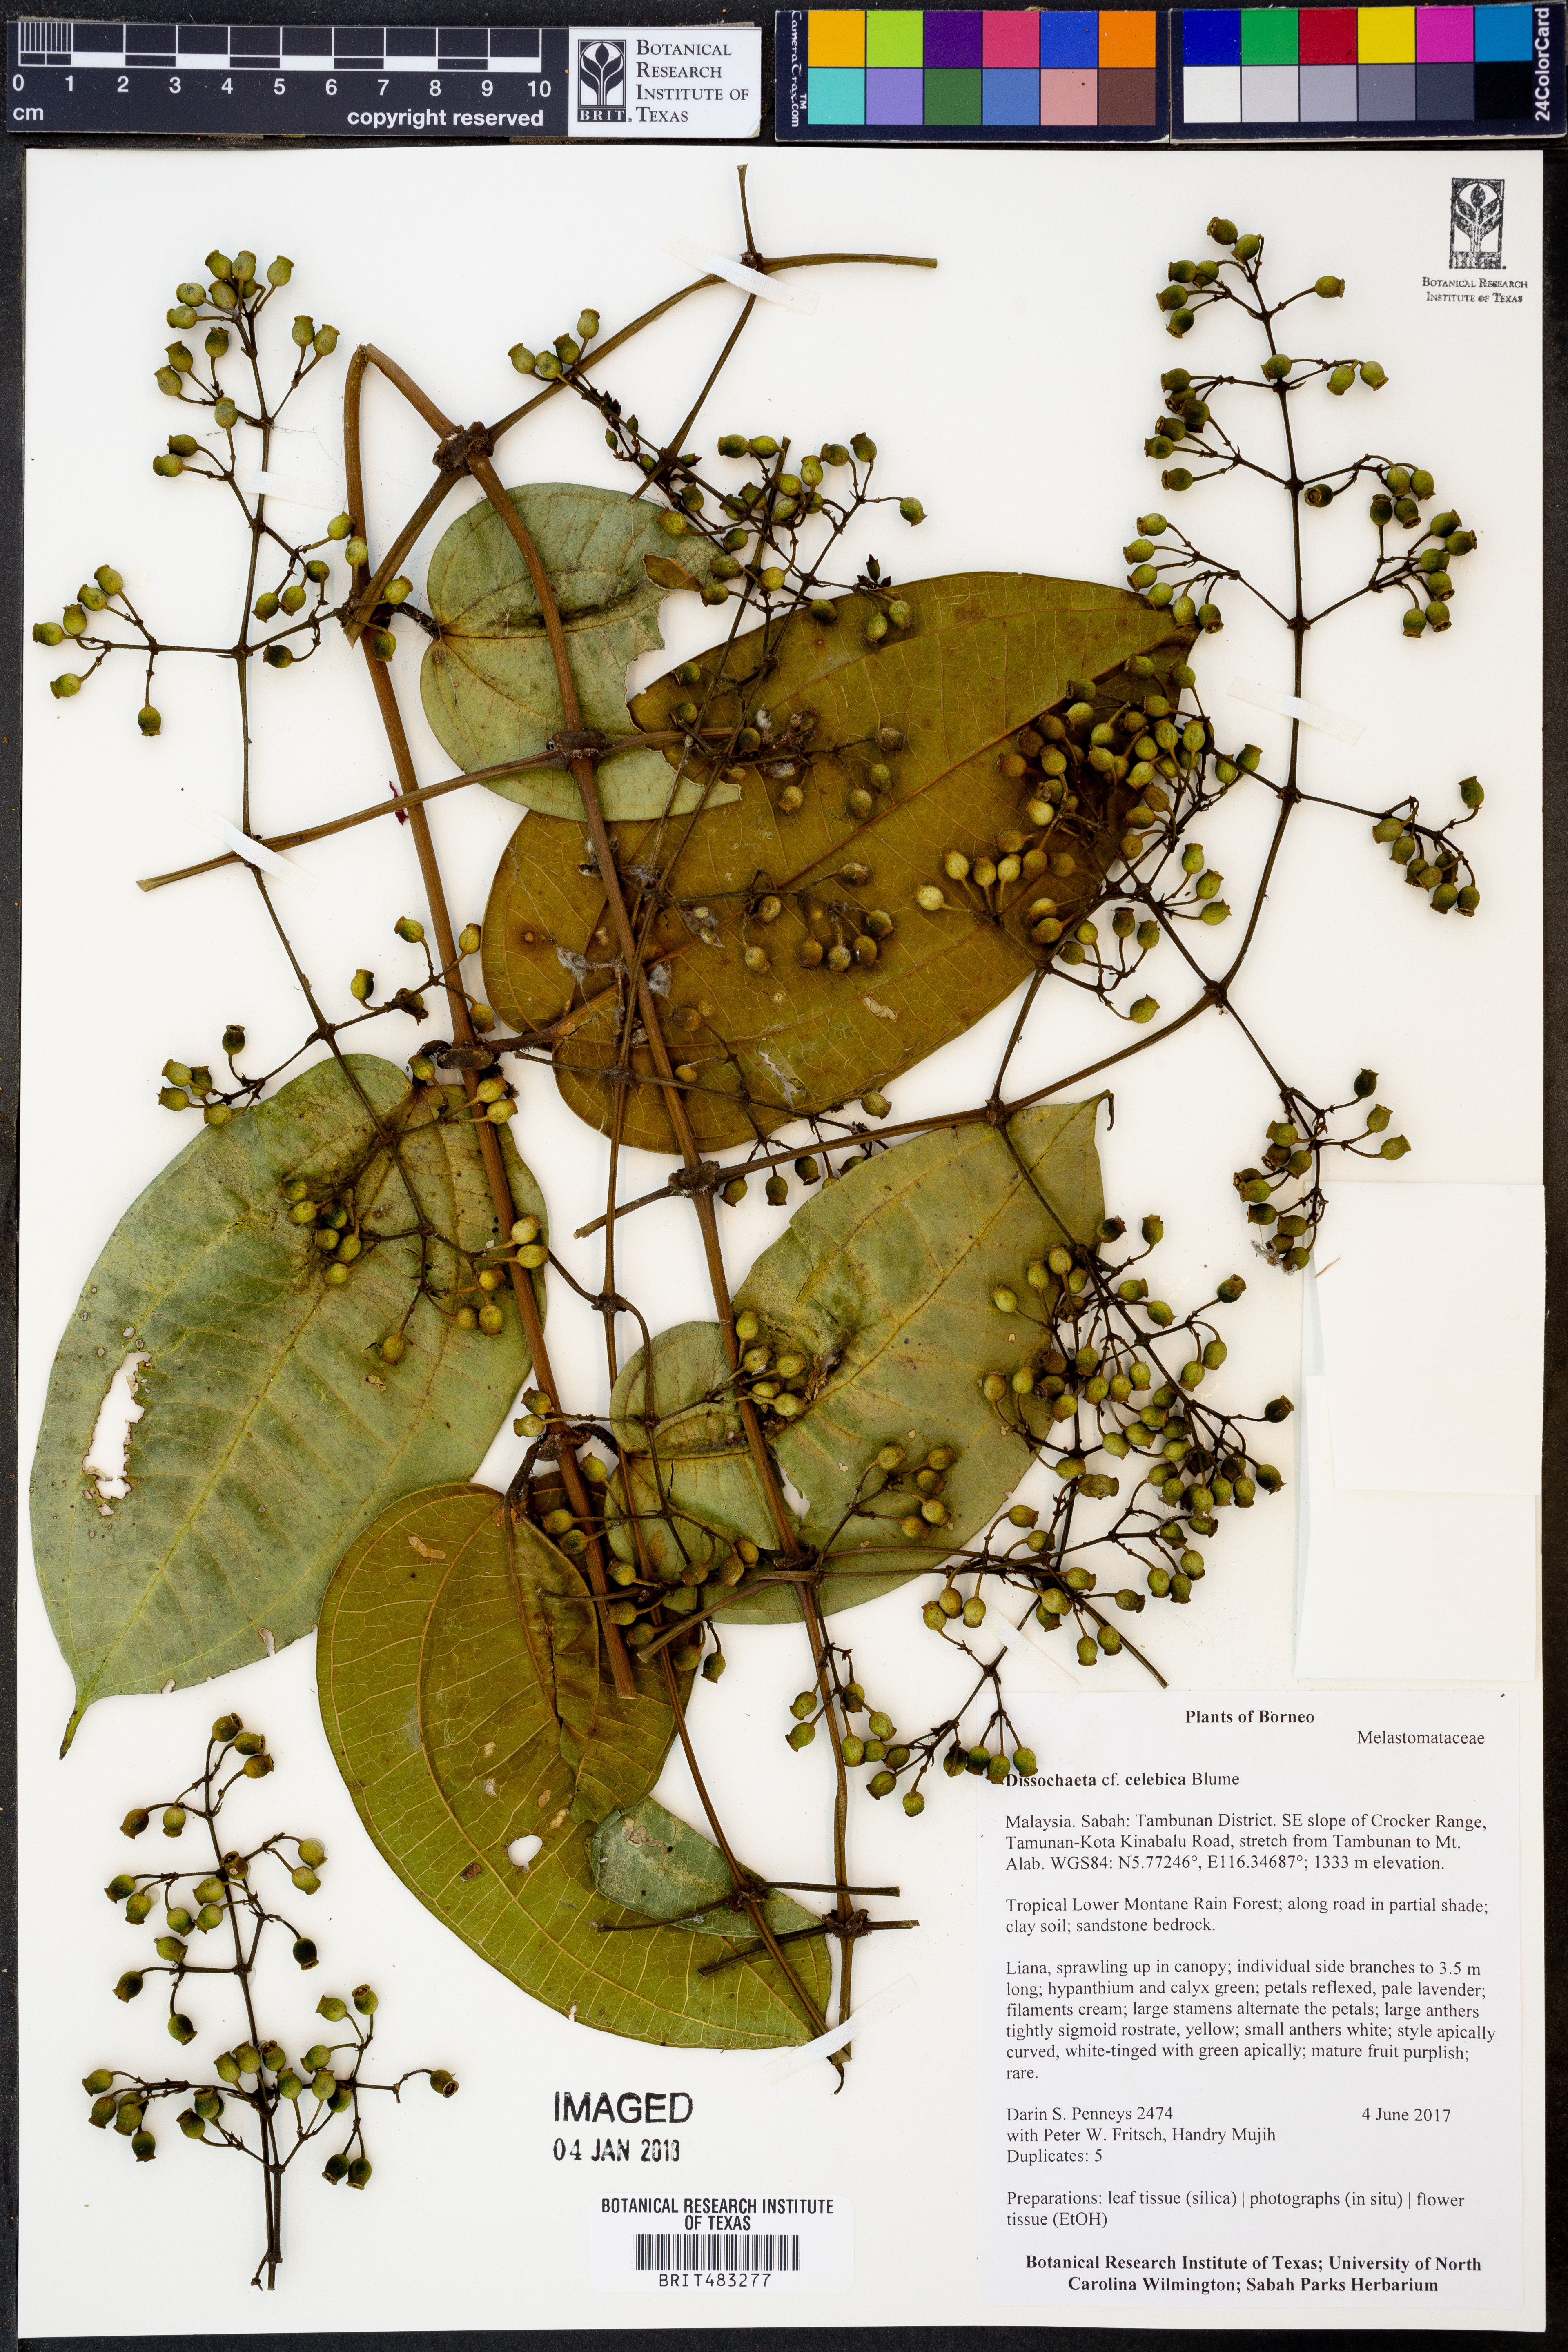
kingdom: Plantae
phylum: Tracheophyta
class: Magnoliopsida
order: Myrtales
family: Melastomataceae
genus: Dissochaeta
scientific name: Dissochaeta celebica
